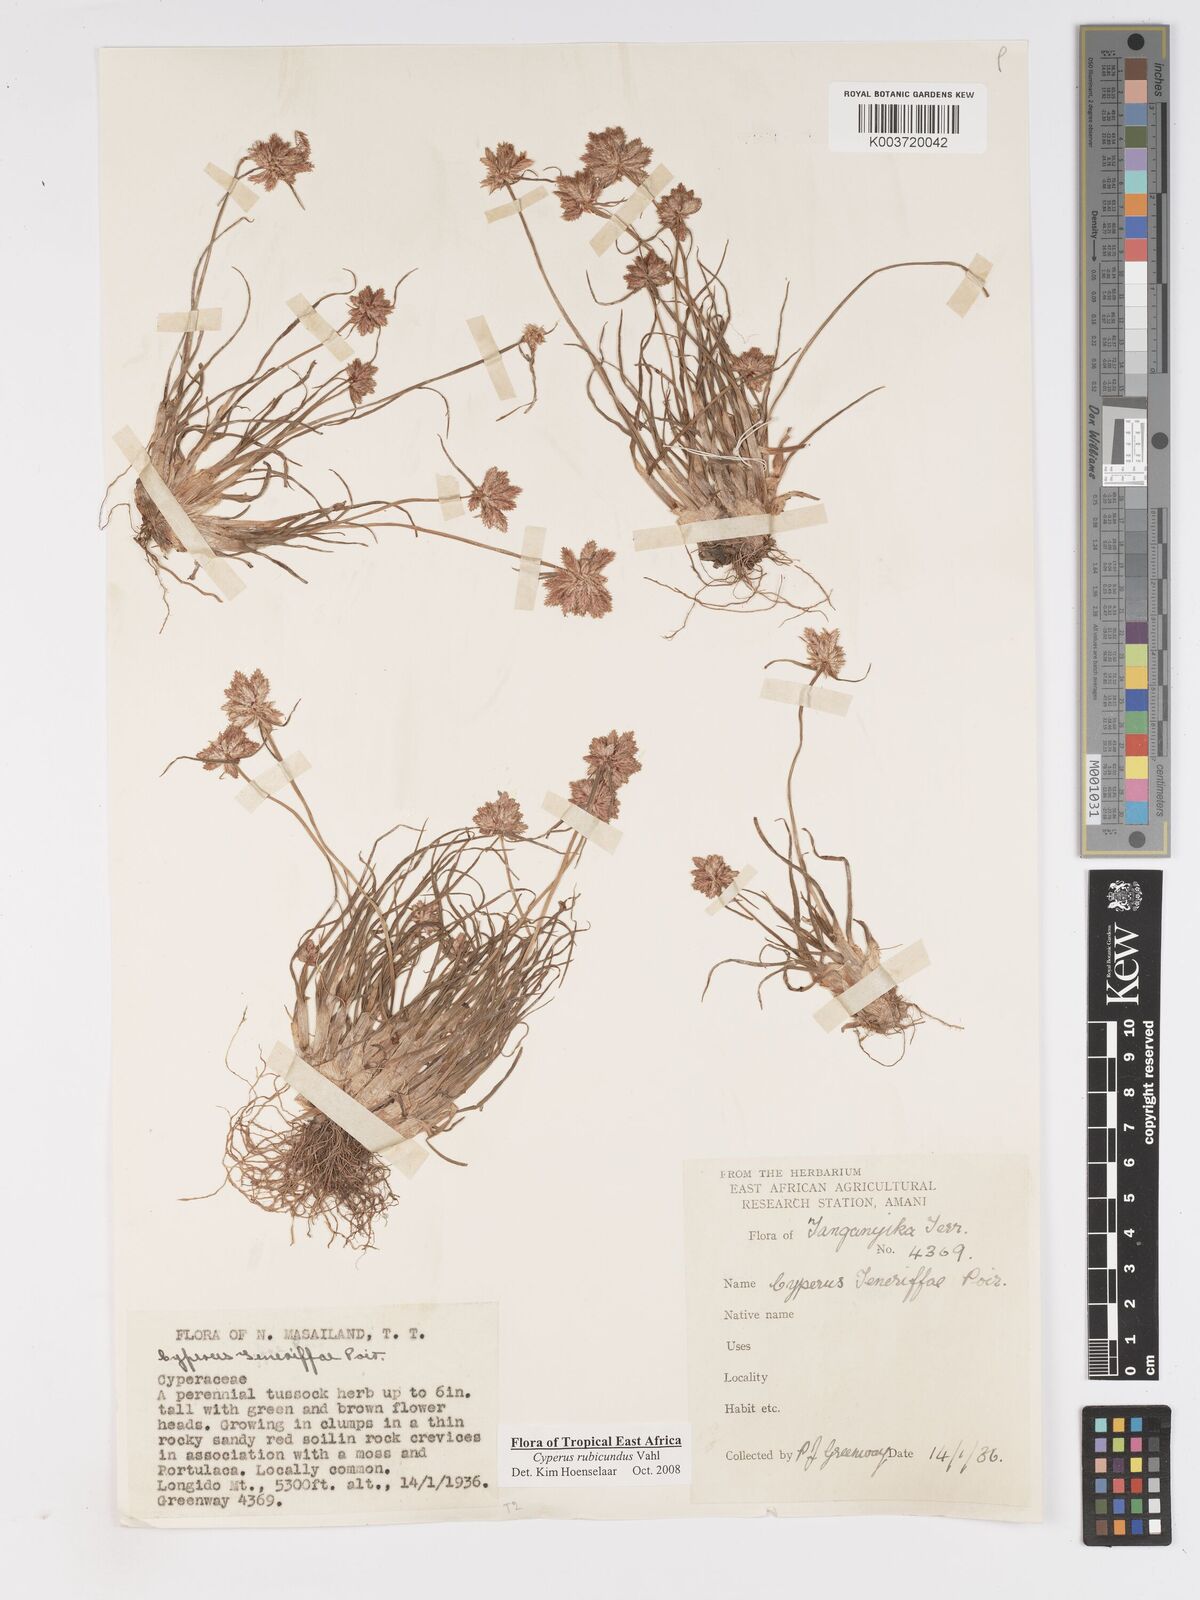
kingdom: Plantae
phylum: Tracheophyta
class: Liliopsida
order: Poales
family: Cyperaceae
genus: Cyperus
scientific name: Cyperus rubicundus
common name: Coco-grass
